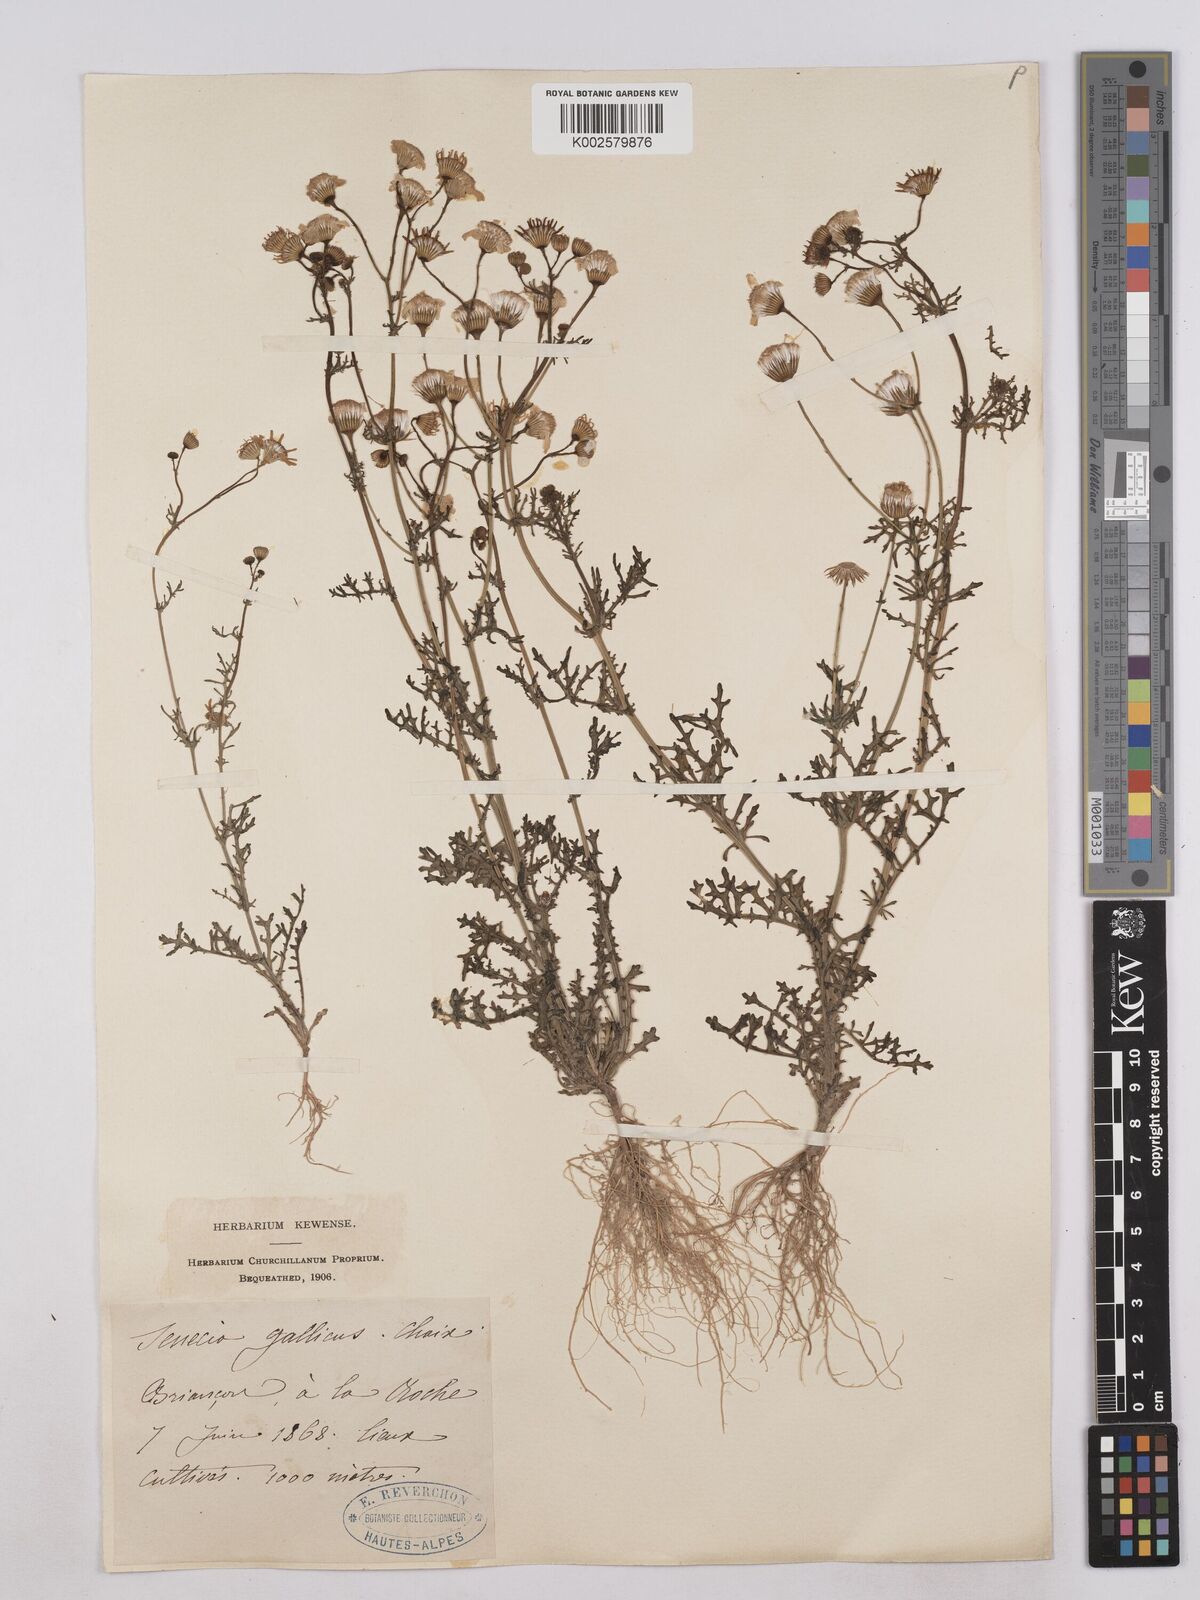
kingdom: Plantae
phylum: Tracheophyta
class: Magnoliopsida
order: Asterales
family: Asteraceae
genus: Senecio
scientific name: Senecio gallicus
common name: French groundsel
